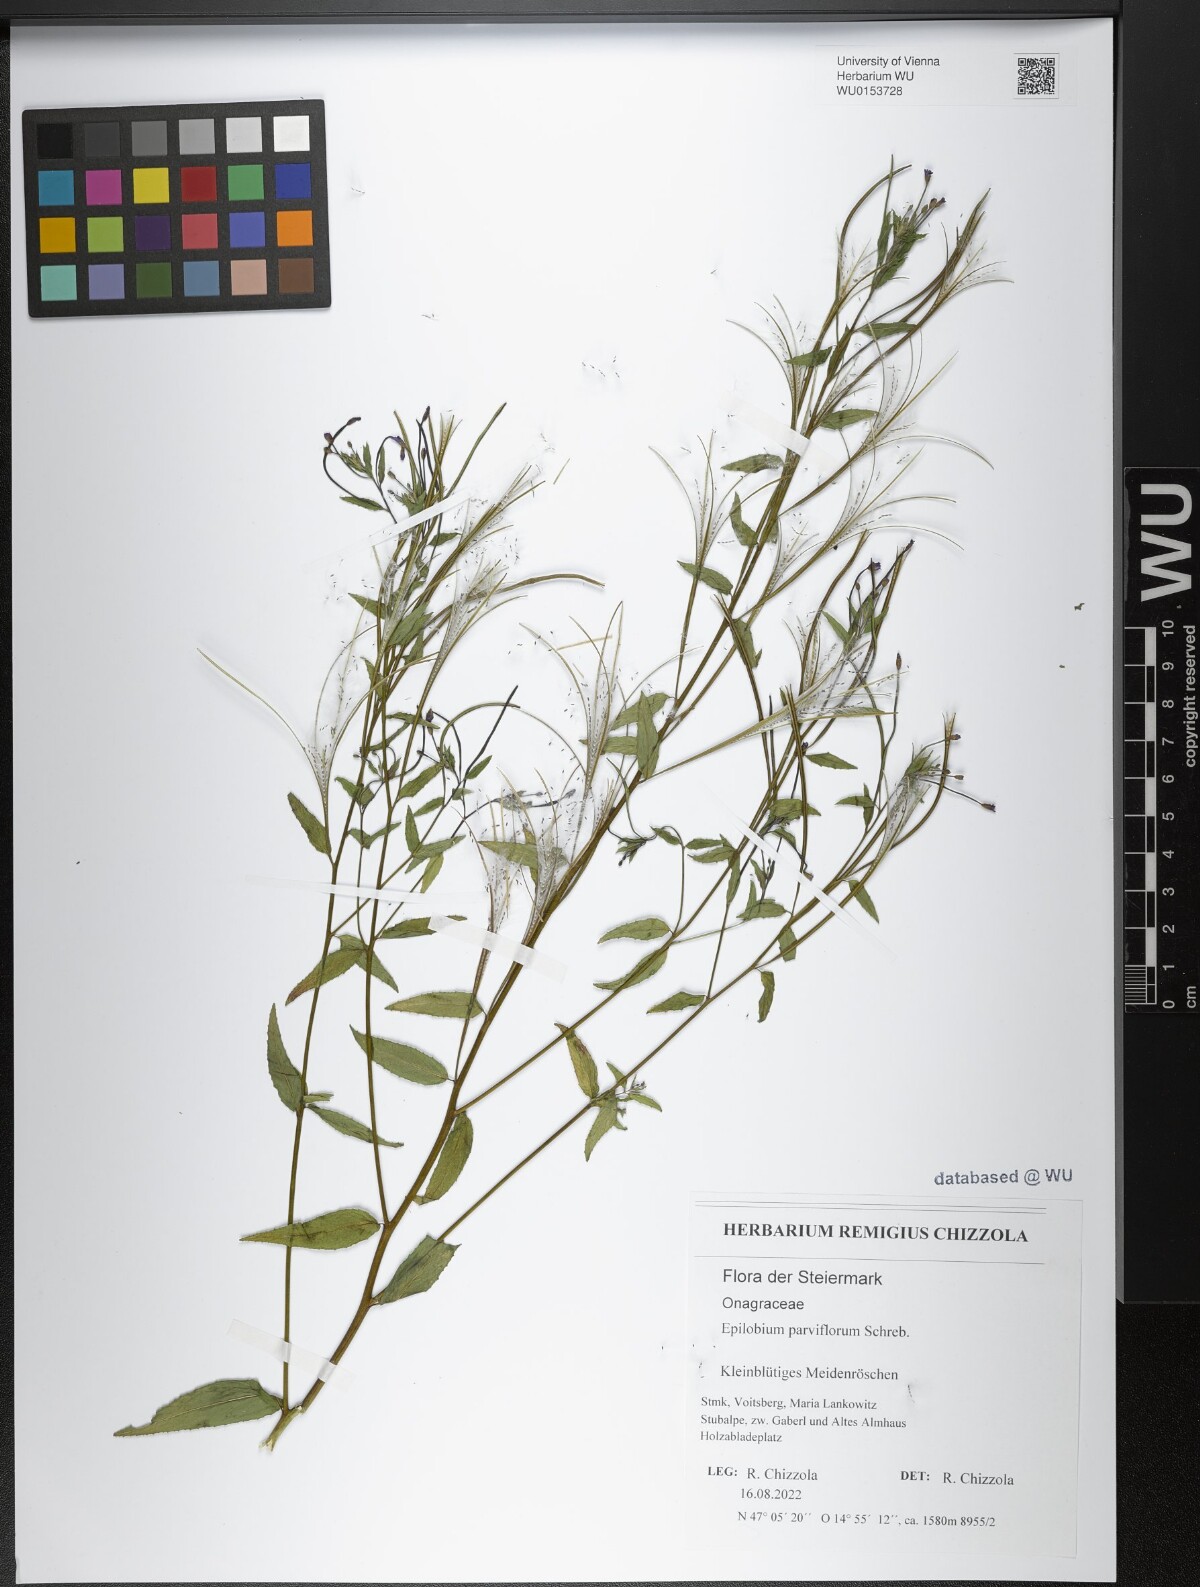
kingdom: Plantae
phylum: Tracheophyta
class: Magnoliopsida
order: Myrtales
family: Onagraceae
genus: Epilobium
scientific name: Epilobium parviflorum
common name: Hoary willowherb
